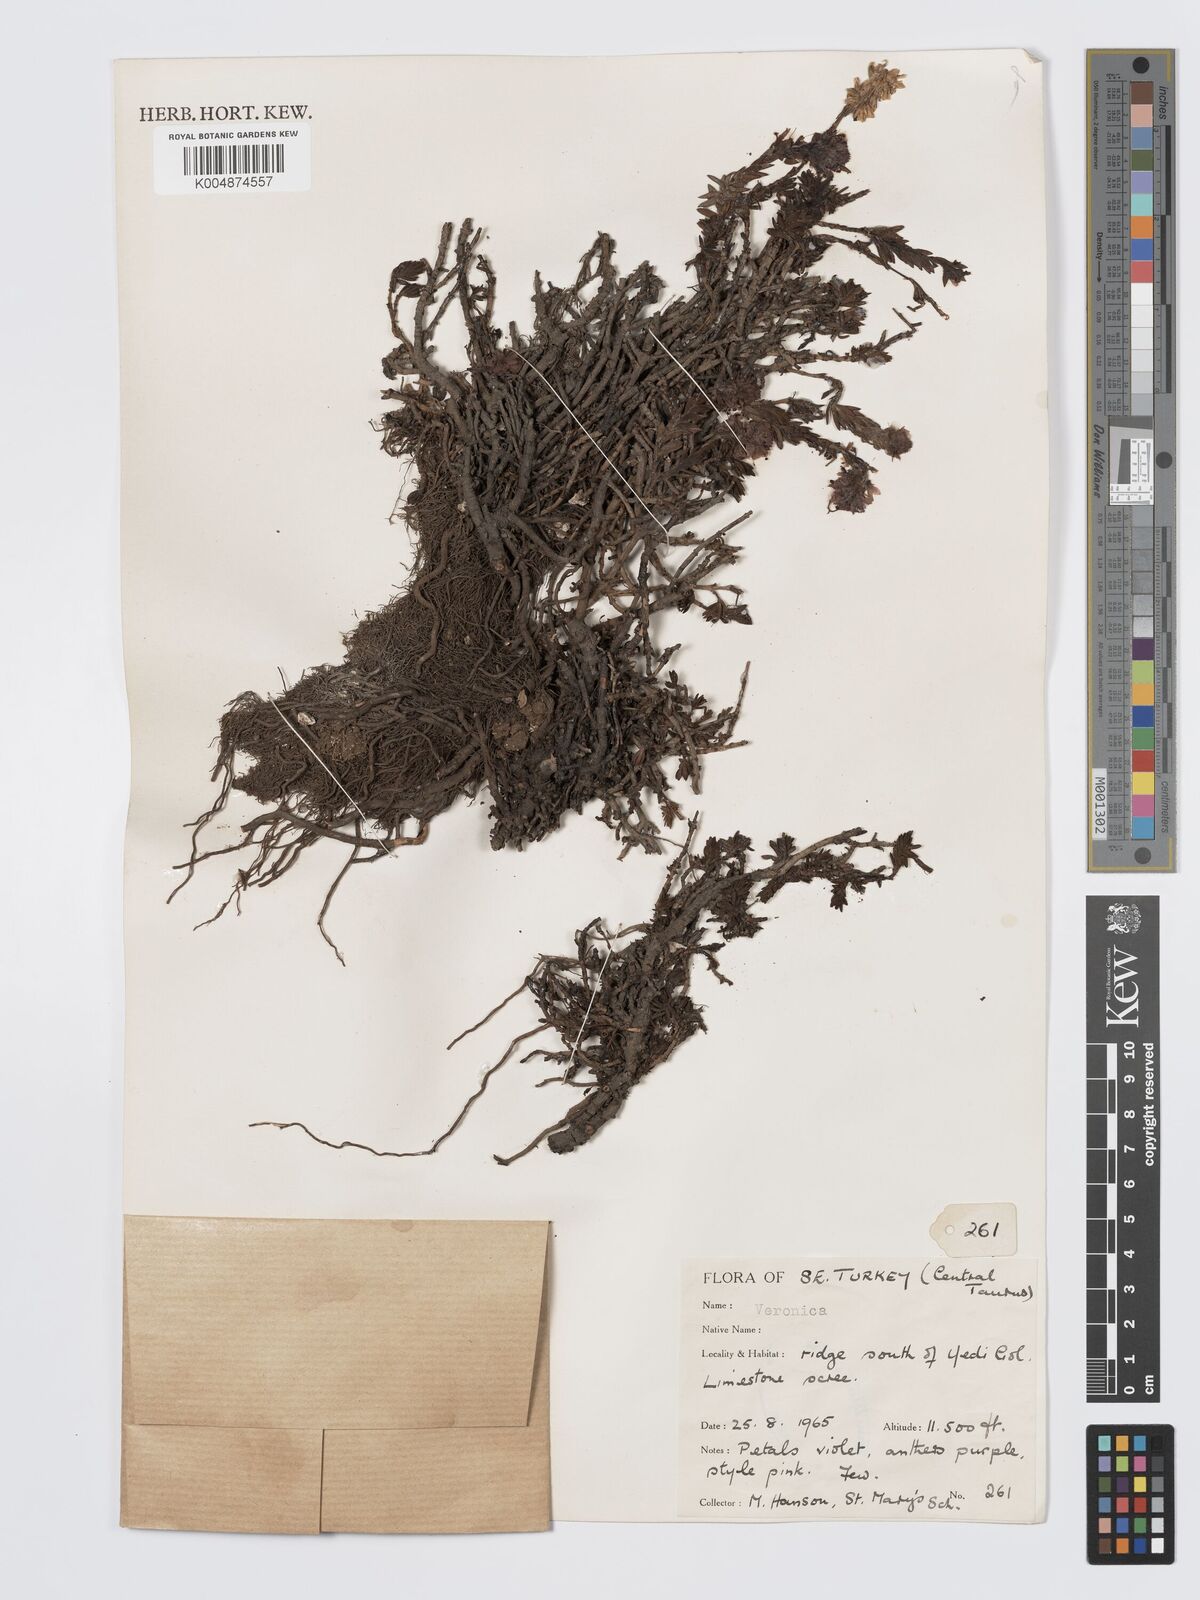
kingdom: Plantae
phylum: Tracheophyta
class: Magnoliopsida
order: Lamiales
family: Plantaginaceae
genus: Veronica
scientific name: Veronica
